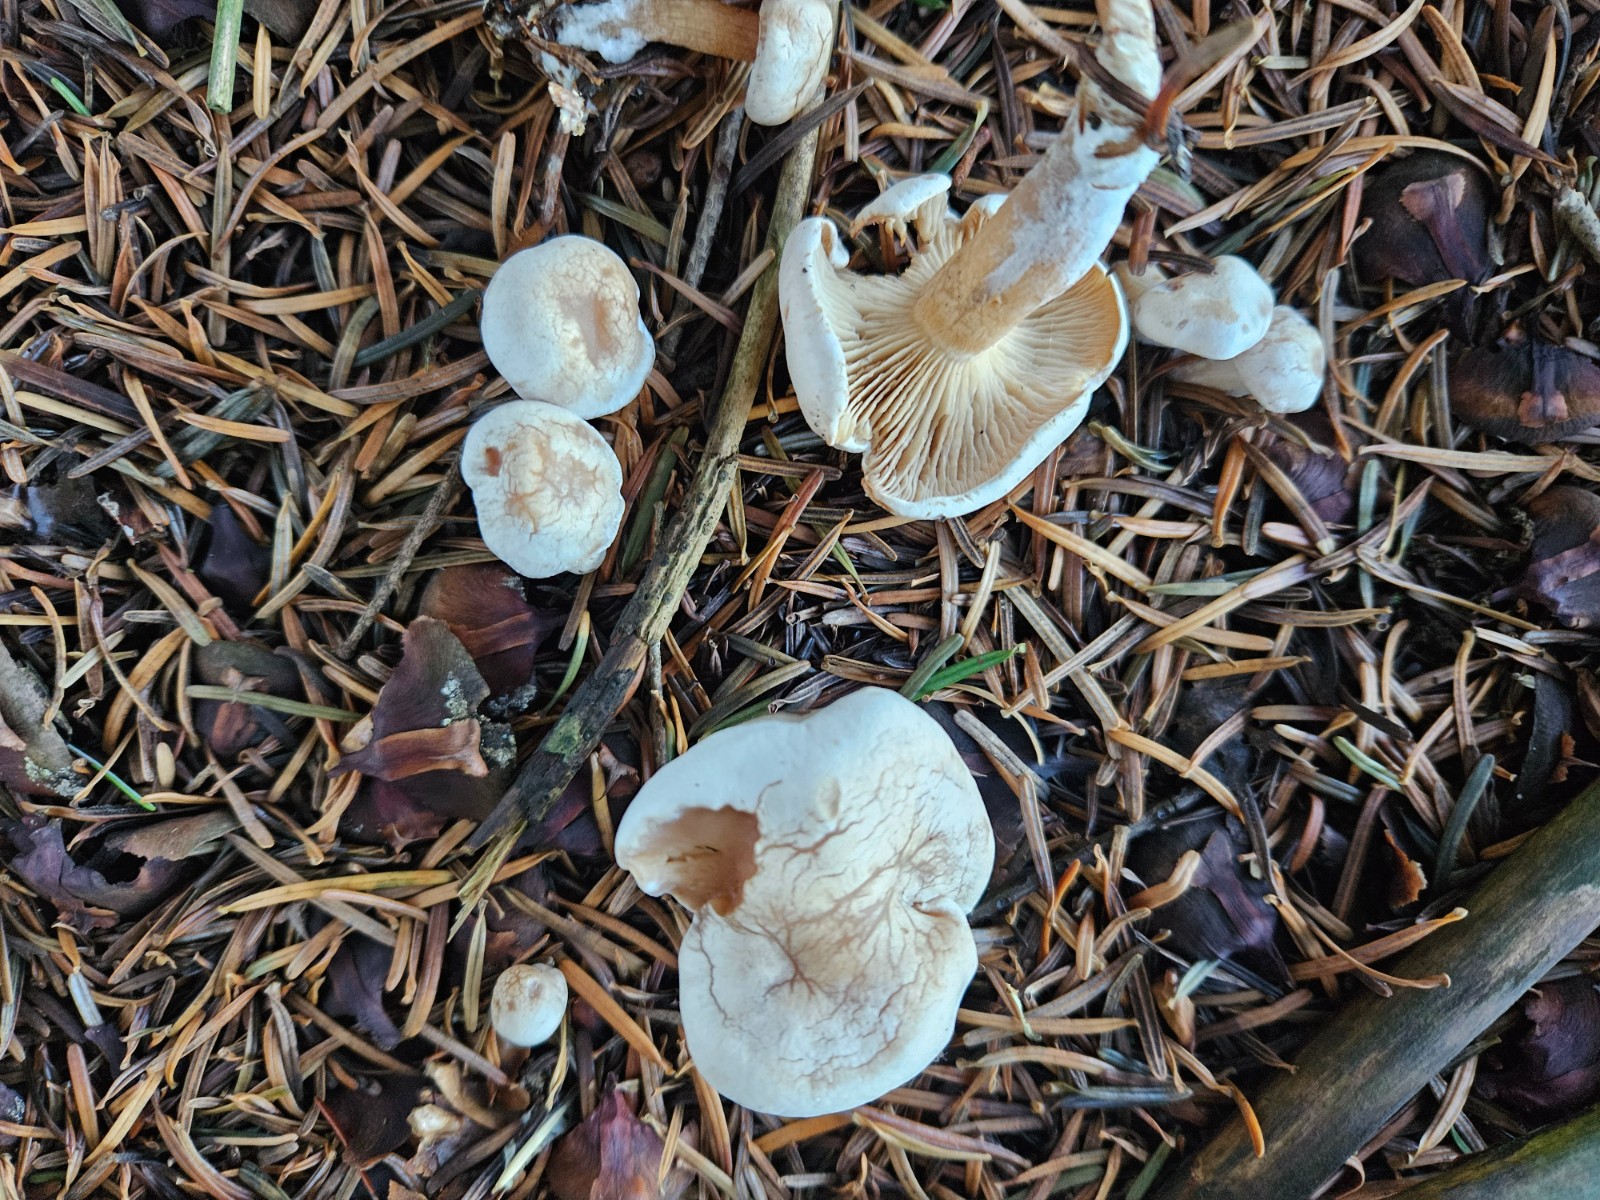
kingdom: Fungi
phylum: Basidiomycota
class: Agaricomycetes
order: Agaricales
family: Tricholomataceae
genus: Clitocybe
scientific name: Clitocybe phyllophila
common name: løv-tragthat
